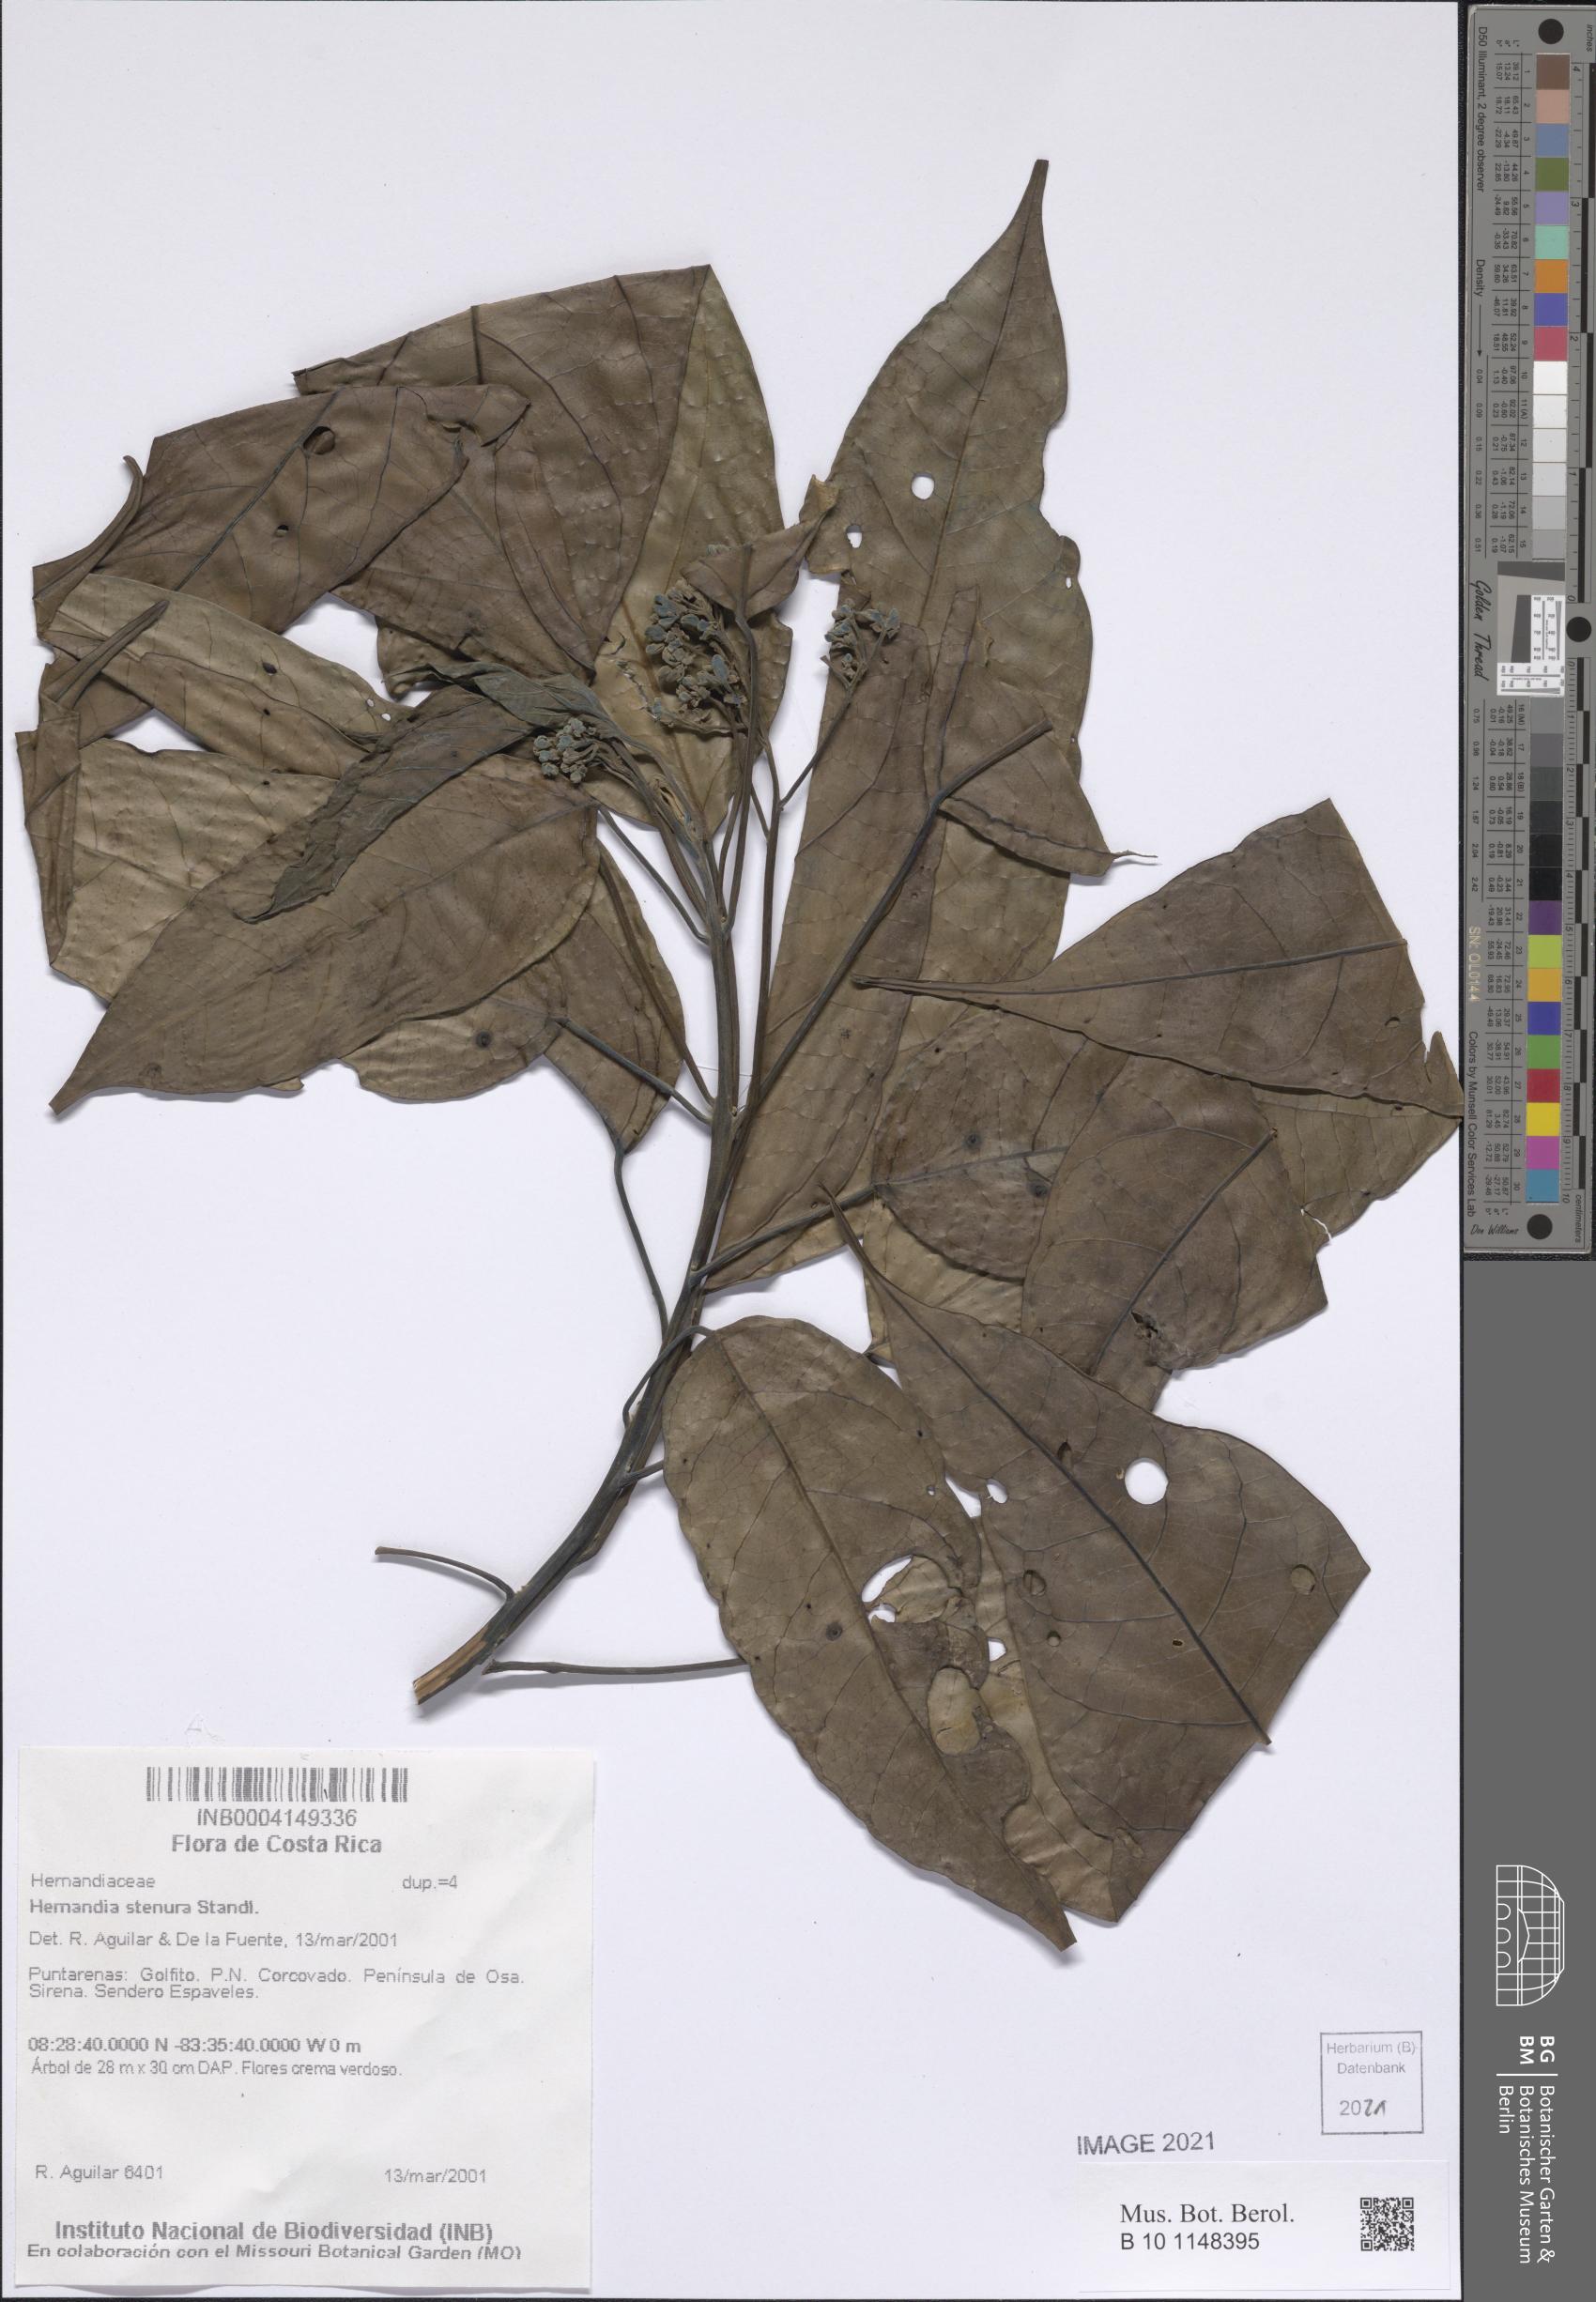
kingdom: Plantae
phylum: Tracheophyta
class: Magnoliopsida
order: Laurales
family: Hernandiaceae
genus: Hernandia
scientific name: Hernandia stenura
